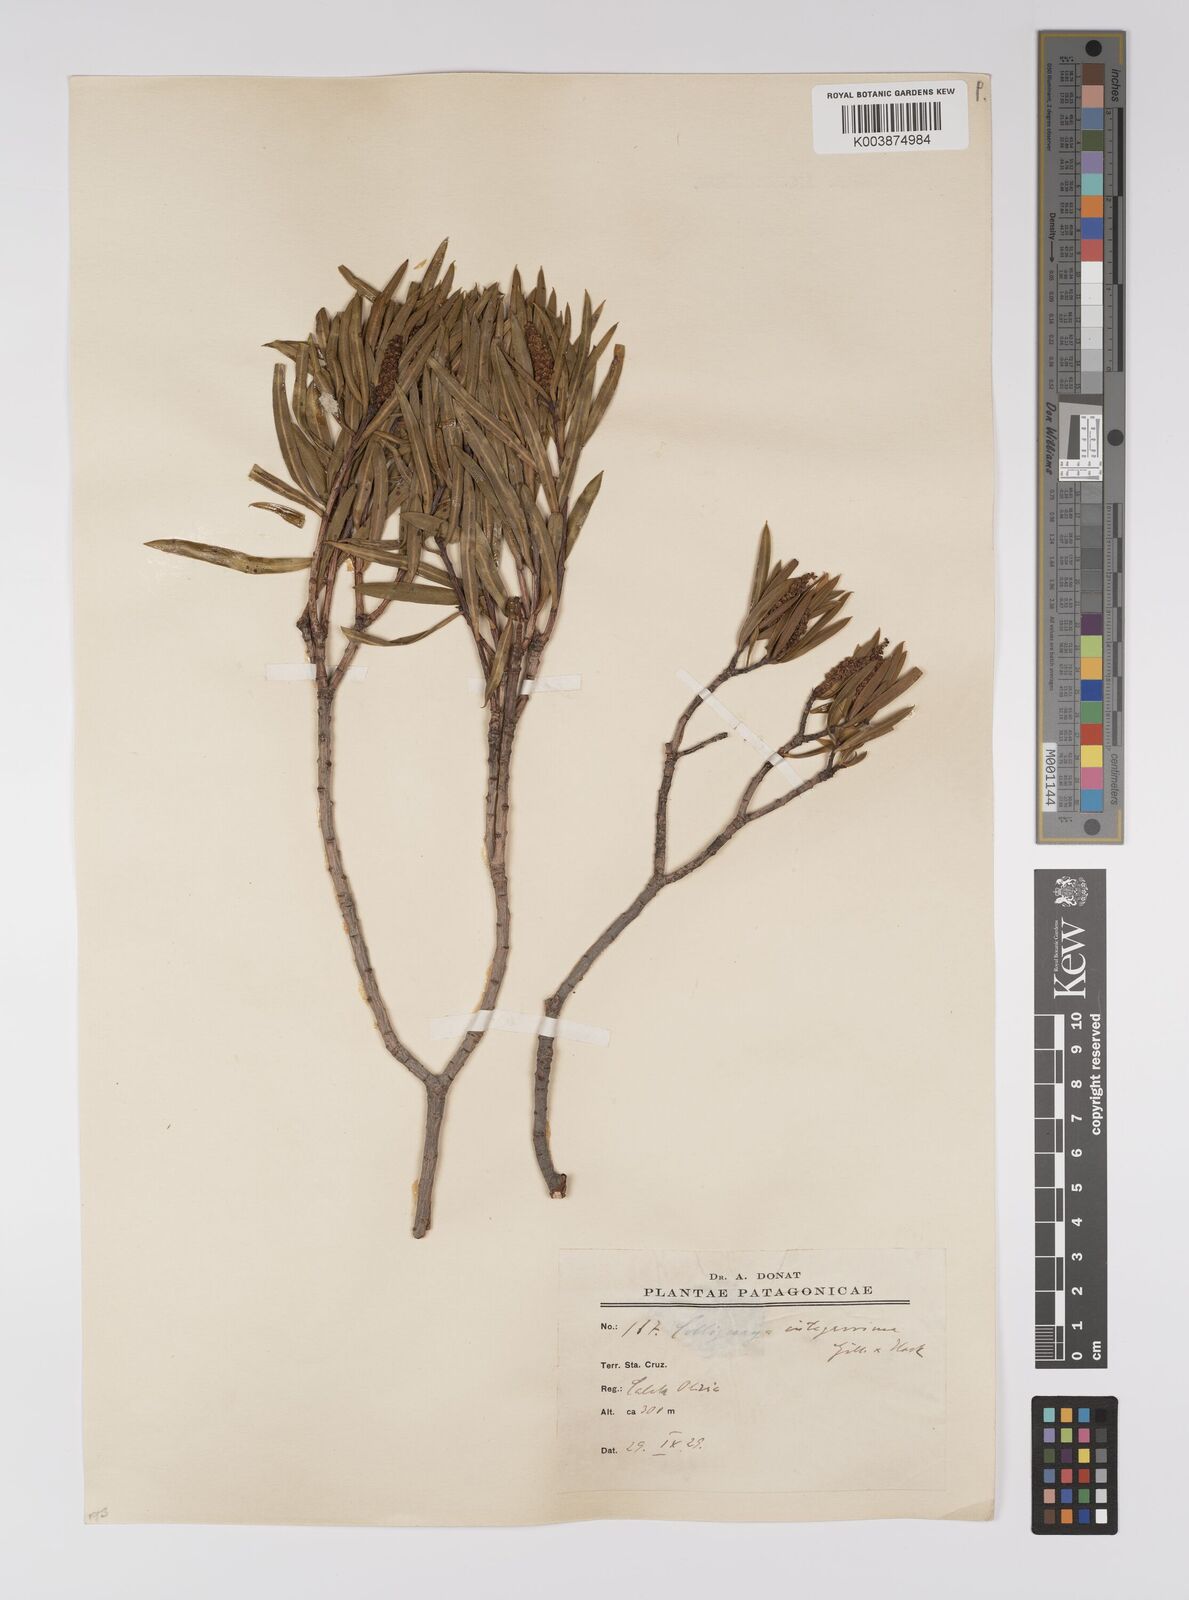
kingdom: Plantae
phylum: Tracheophyta
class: Magnoliopsida
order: Malpighiales
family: Euphorbiaceae
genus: Colliguaja
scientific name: Colliguaja integerrima
